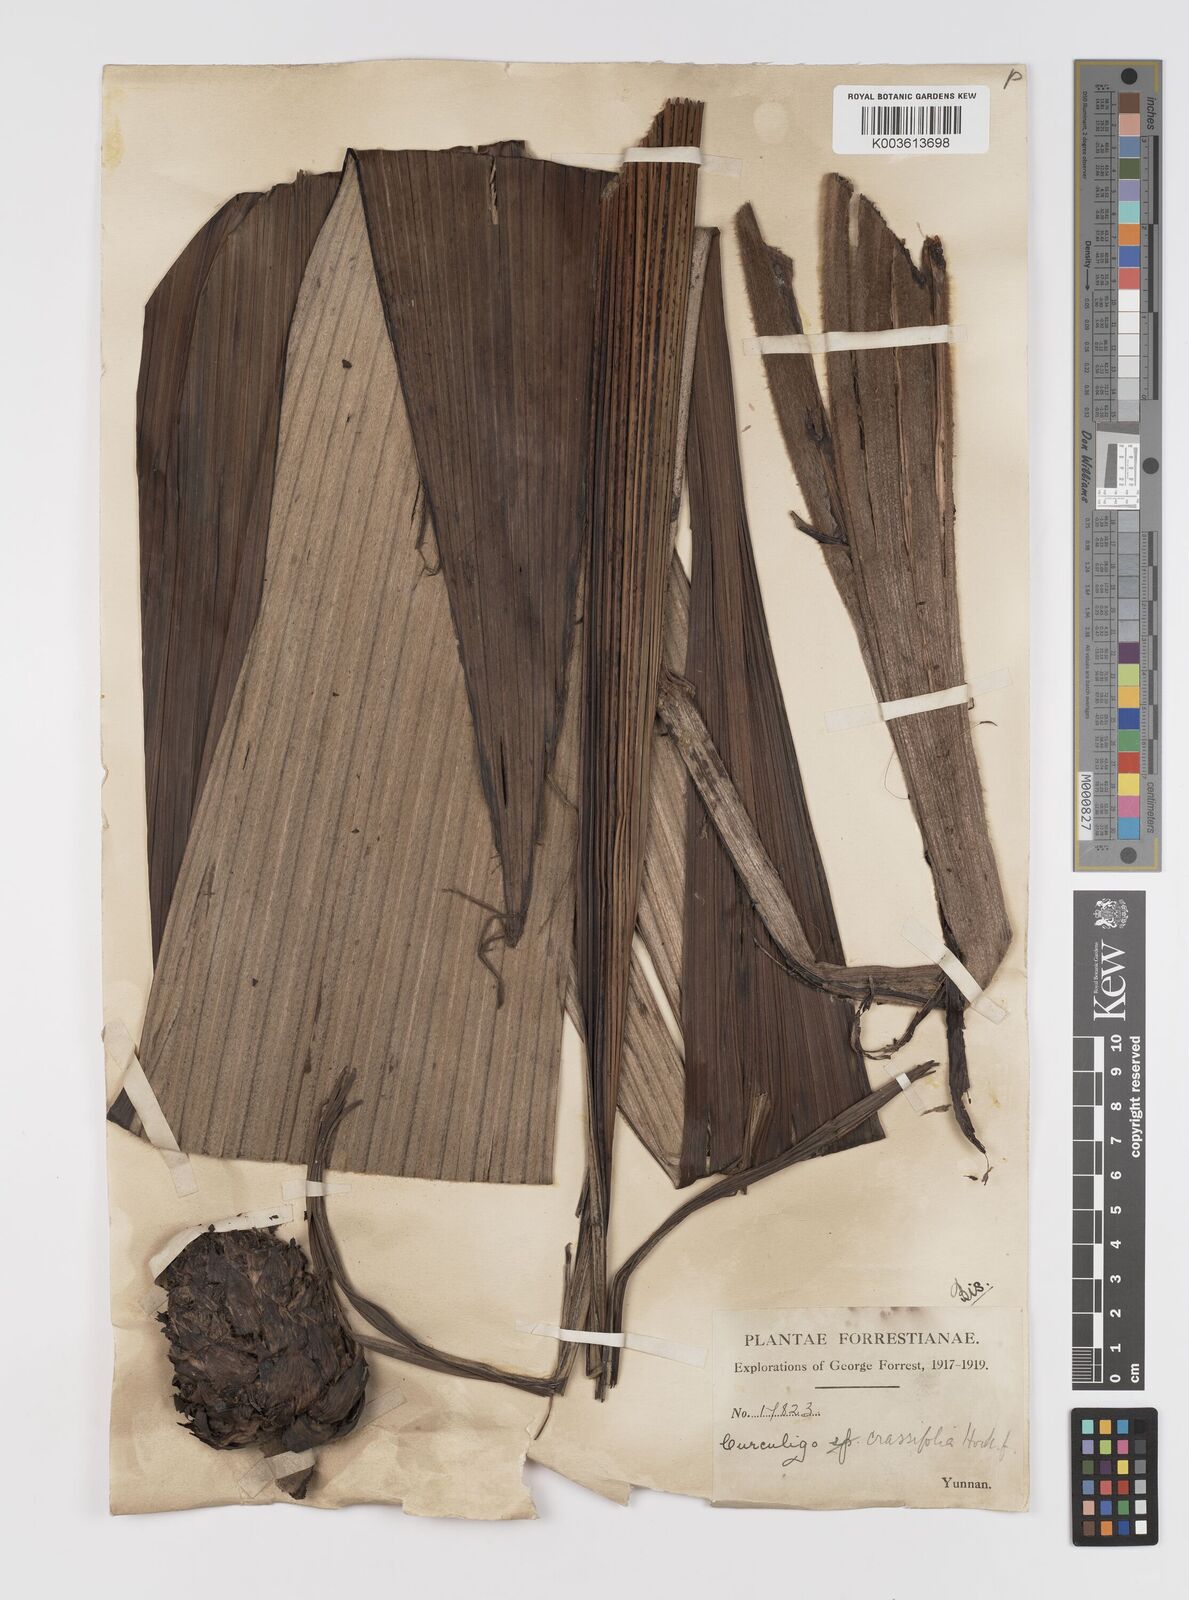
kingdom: Plantae
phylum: Tracheophyta
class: Liliopsida
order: Asparagales
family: Hypoxidaceae
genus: Curculigo
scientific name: Curculigo crassifolia
